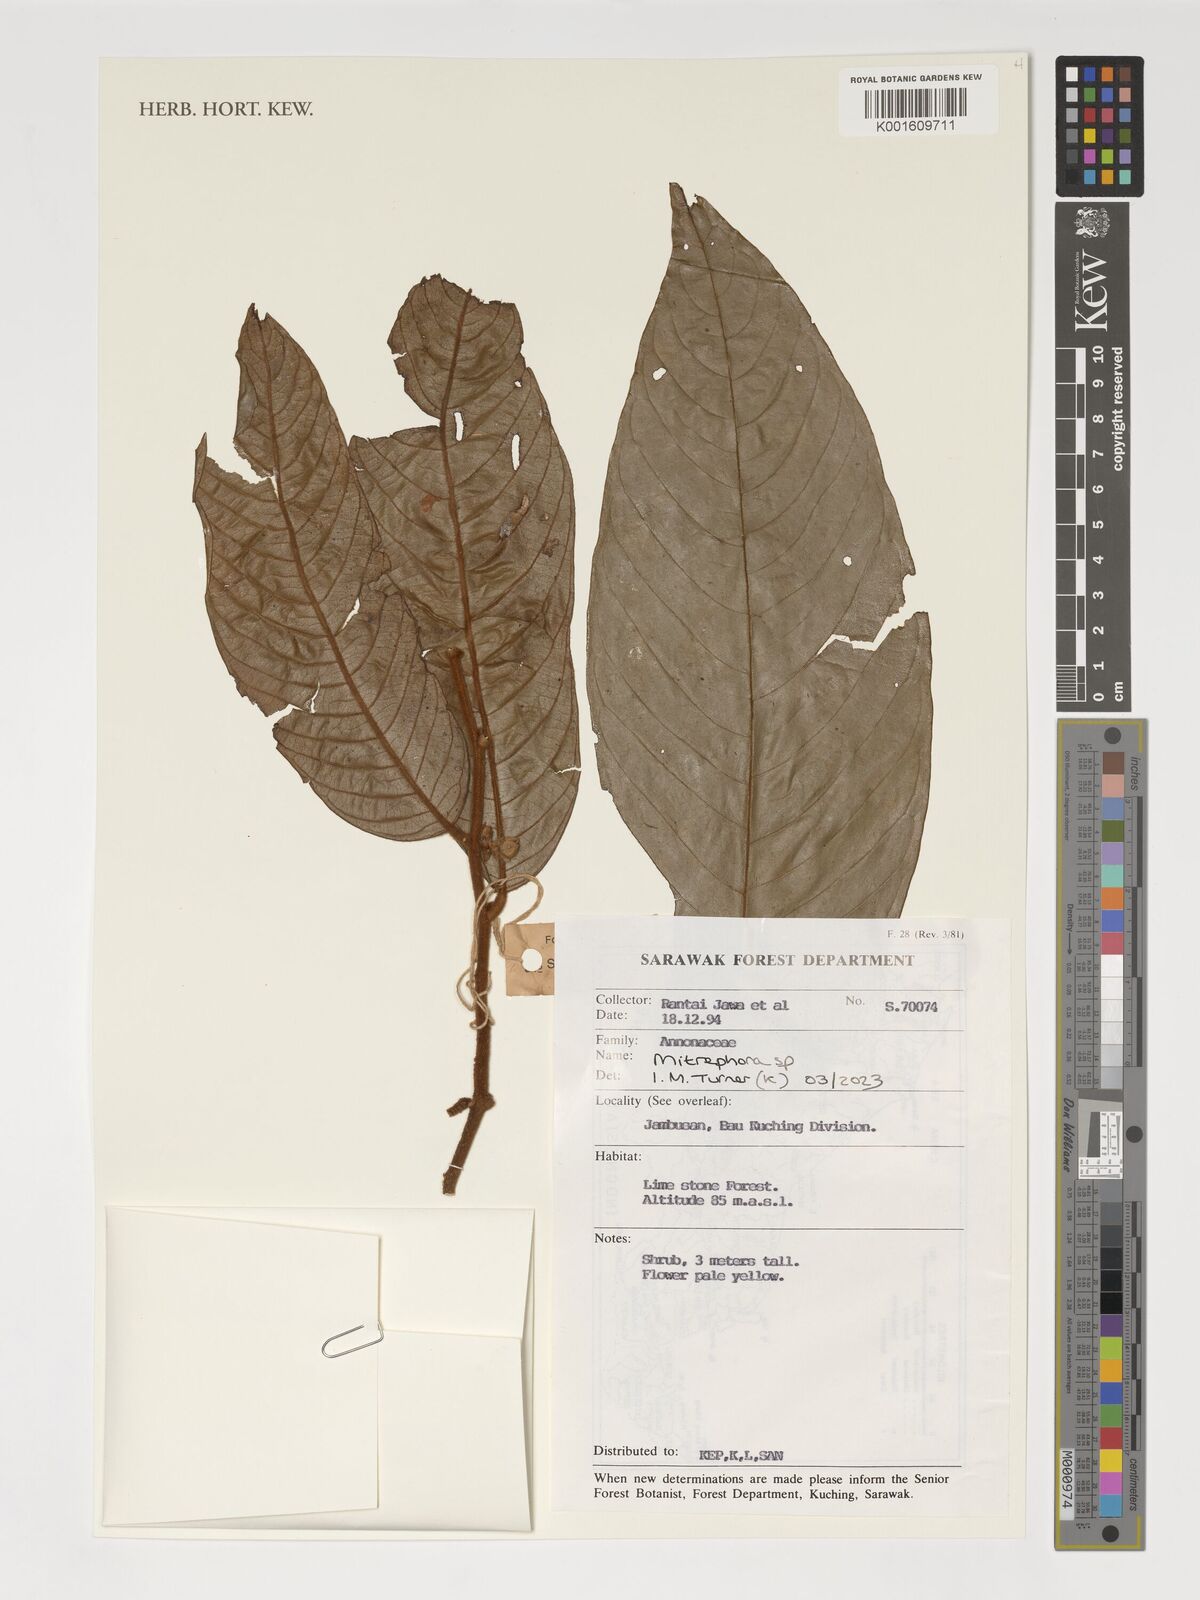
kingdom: Plantae
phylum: Tracheophyta
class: Magnoliopsida
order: Magnoliales
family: Annonaceae
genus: Mitrephora
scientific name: Mitrephora
